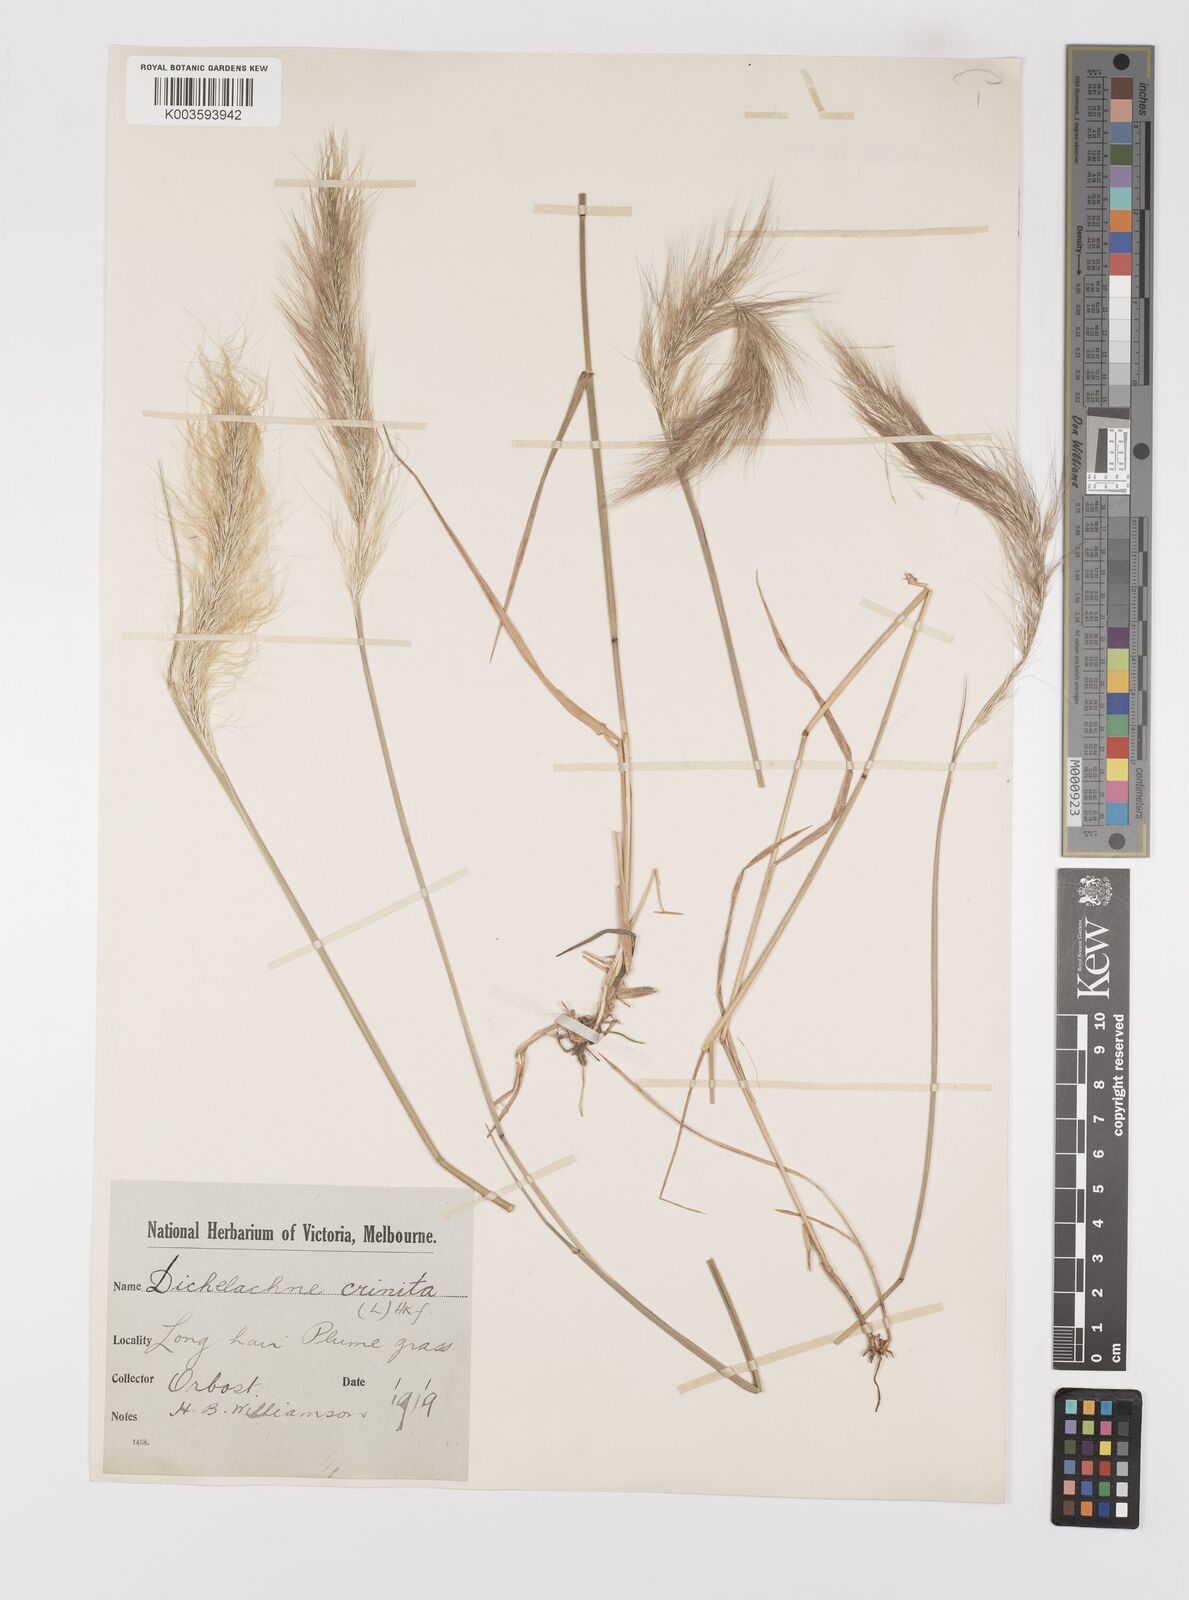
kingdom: Plantae
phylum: Tracheophyta
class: Liliopsida
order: Poales
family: Poaceae
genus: Dichelachne
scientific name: Dichelachne crinita
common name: Clovenfoot plumegrass
